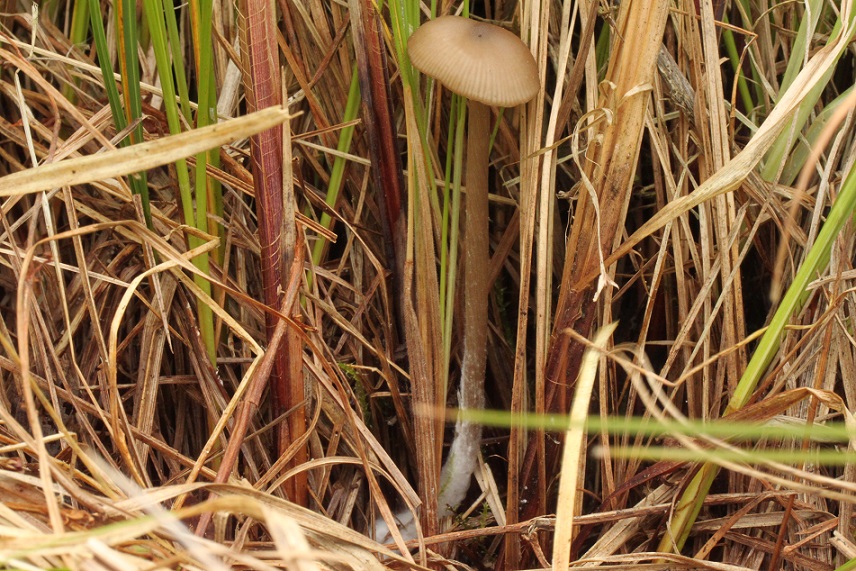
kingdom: Fungi
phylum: Basidiomycota
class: Agaricomycetes
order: Agaricales
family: Entolomataceae
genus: Entoloma
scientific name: Entoloma sericeum
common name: silkeglinsende rødblad
